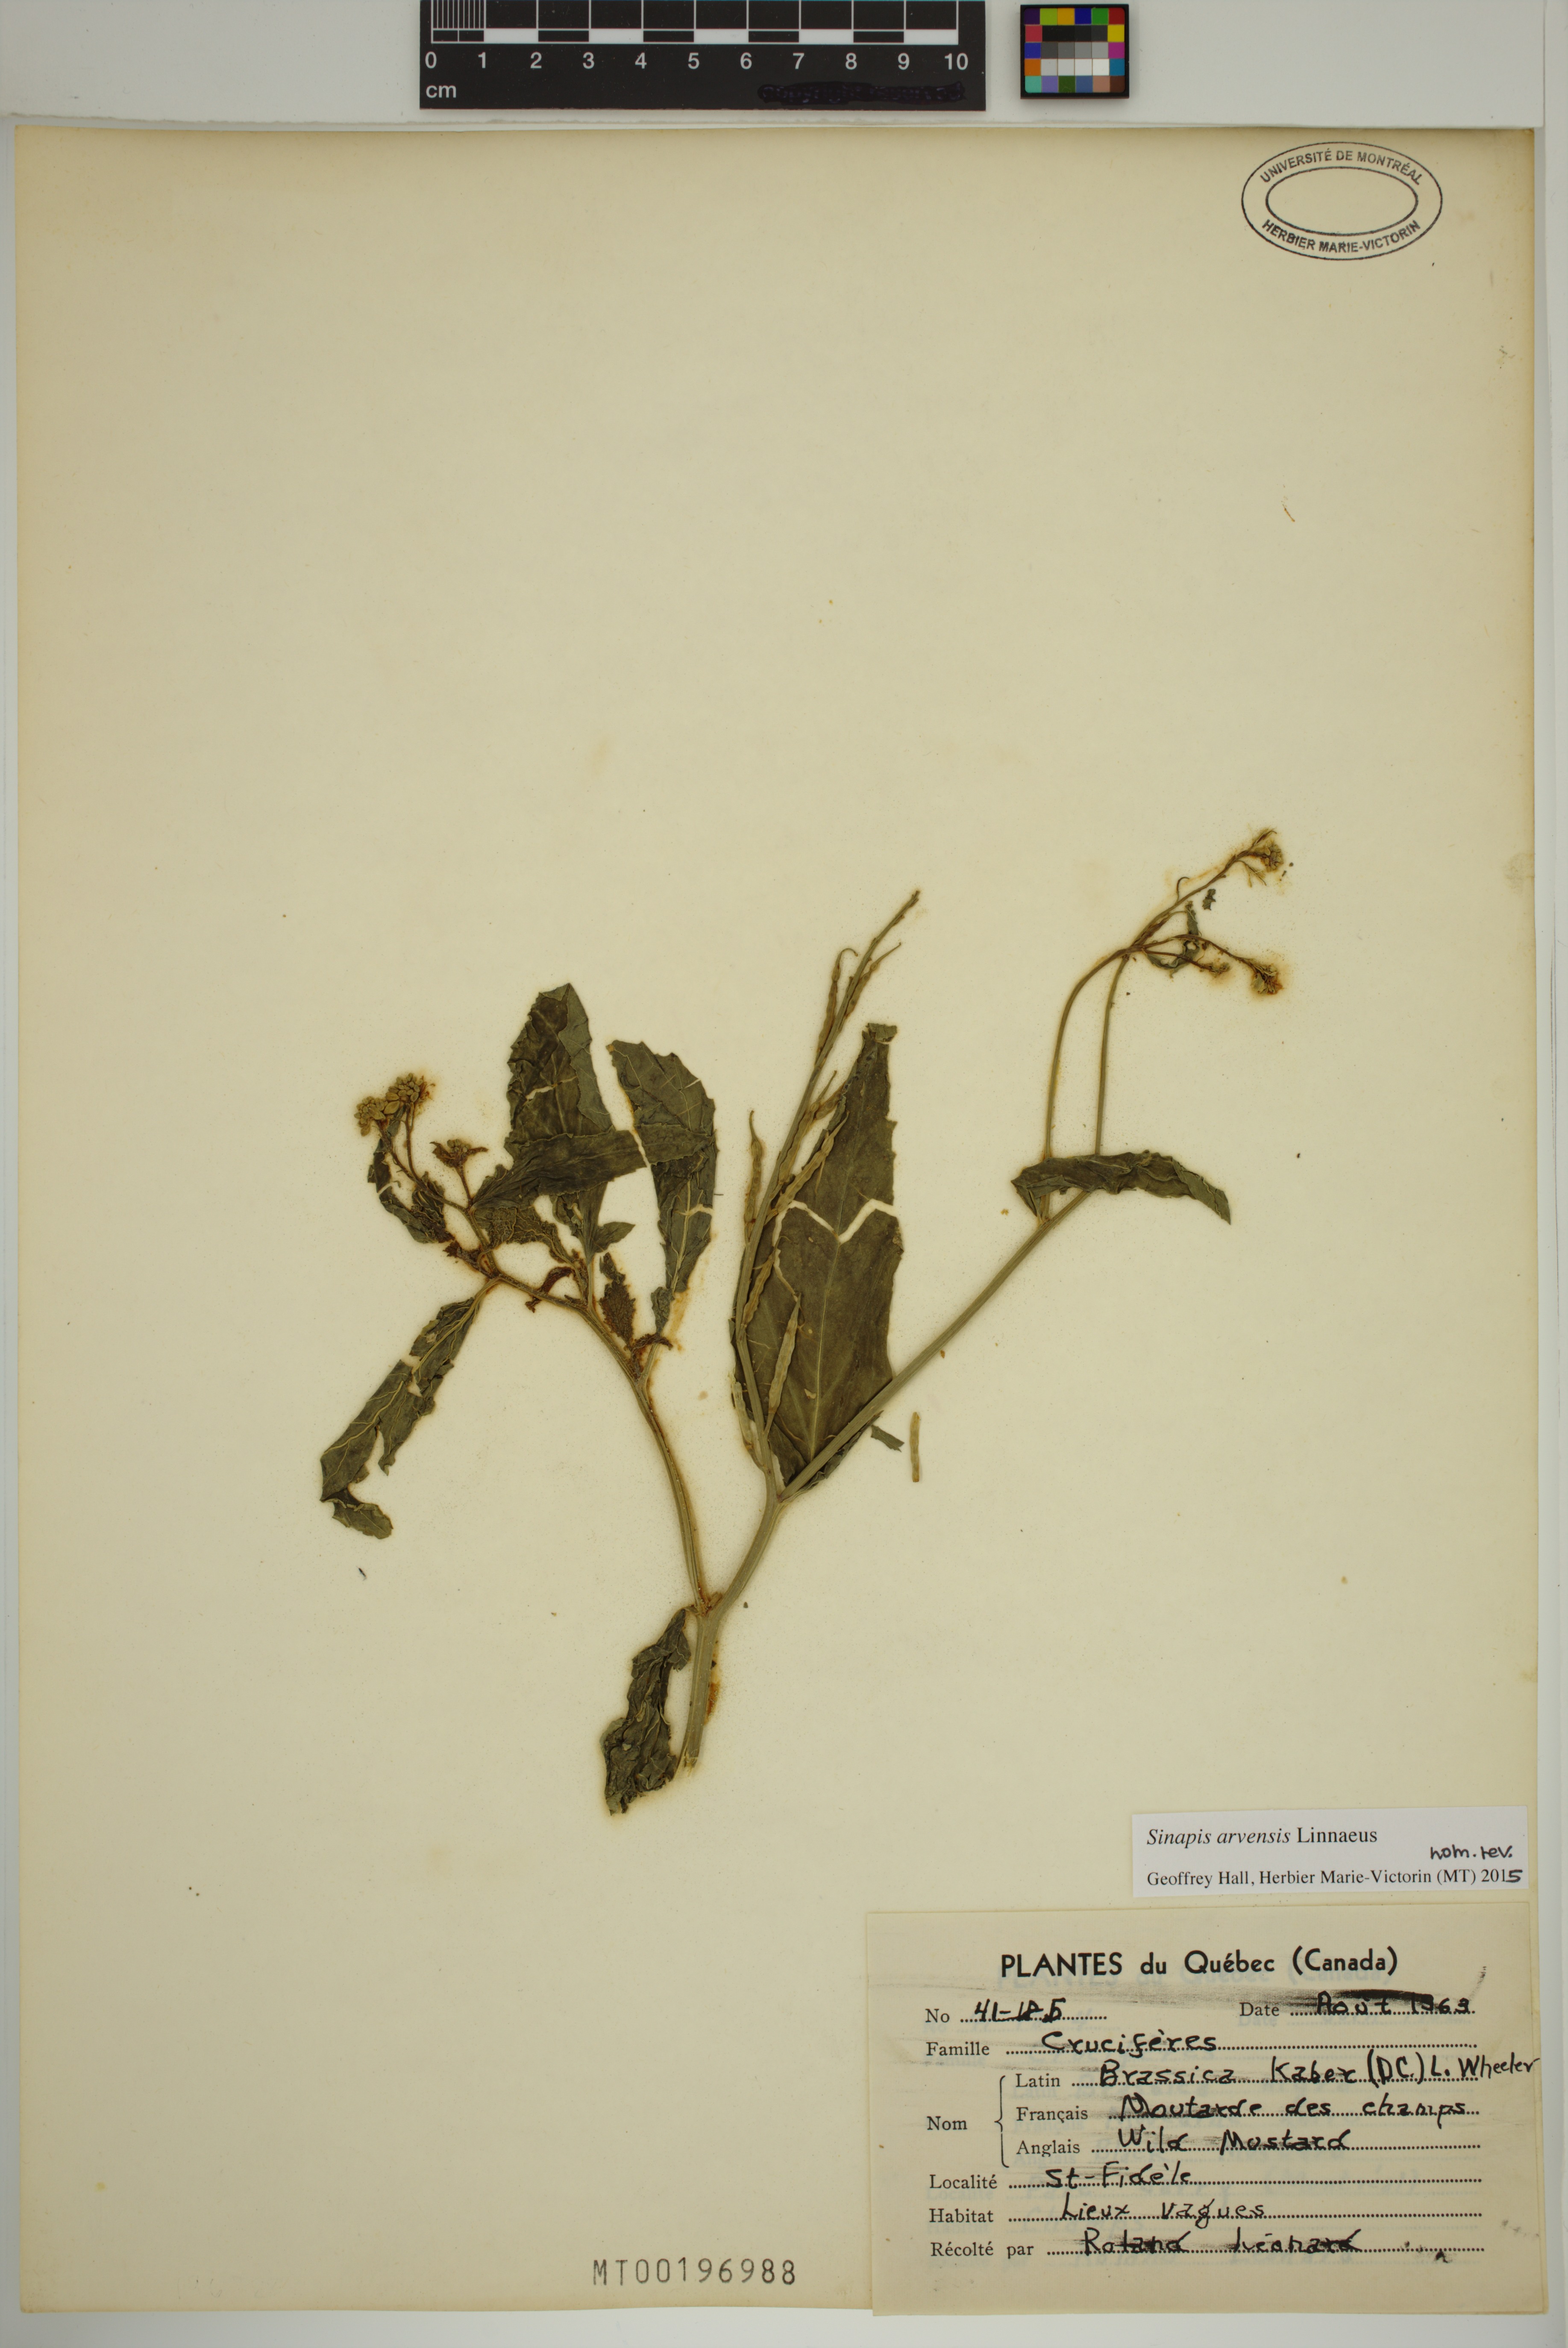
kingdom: Plantae
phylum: Tracheophyta
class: Magnoliopsida
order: Brassicales
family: Brassicaceae
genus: Sinapis
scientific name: Sinapis arvensis
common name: Charlock
